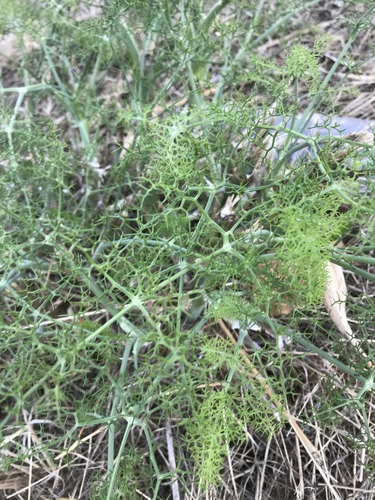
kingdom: Plantae
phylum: Tracheophyta
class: Magnoliopsida
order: Apiales
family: Apiaceae
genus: Foeniculum
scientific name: Foeniculum vulgare
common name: Fennel
